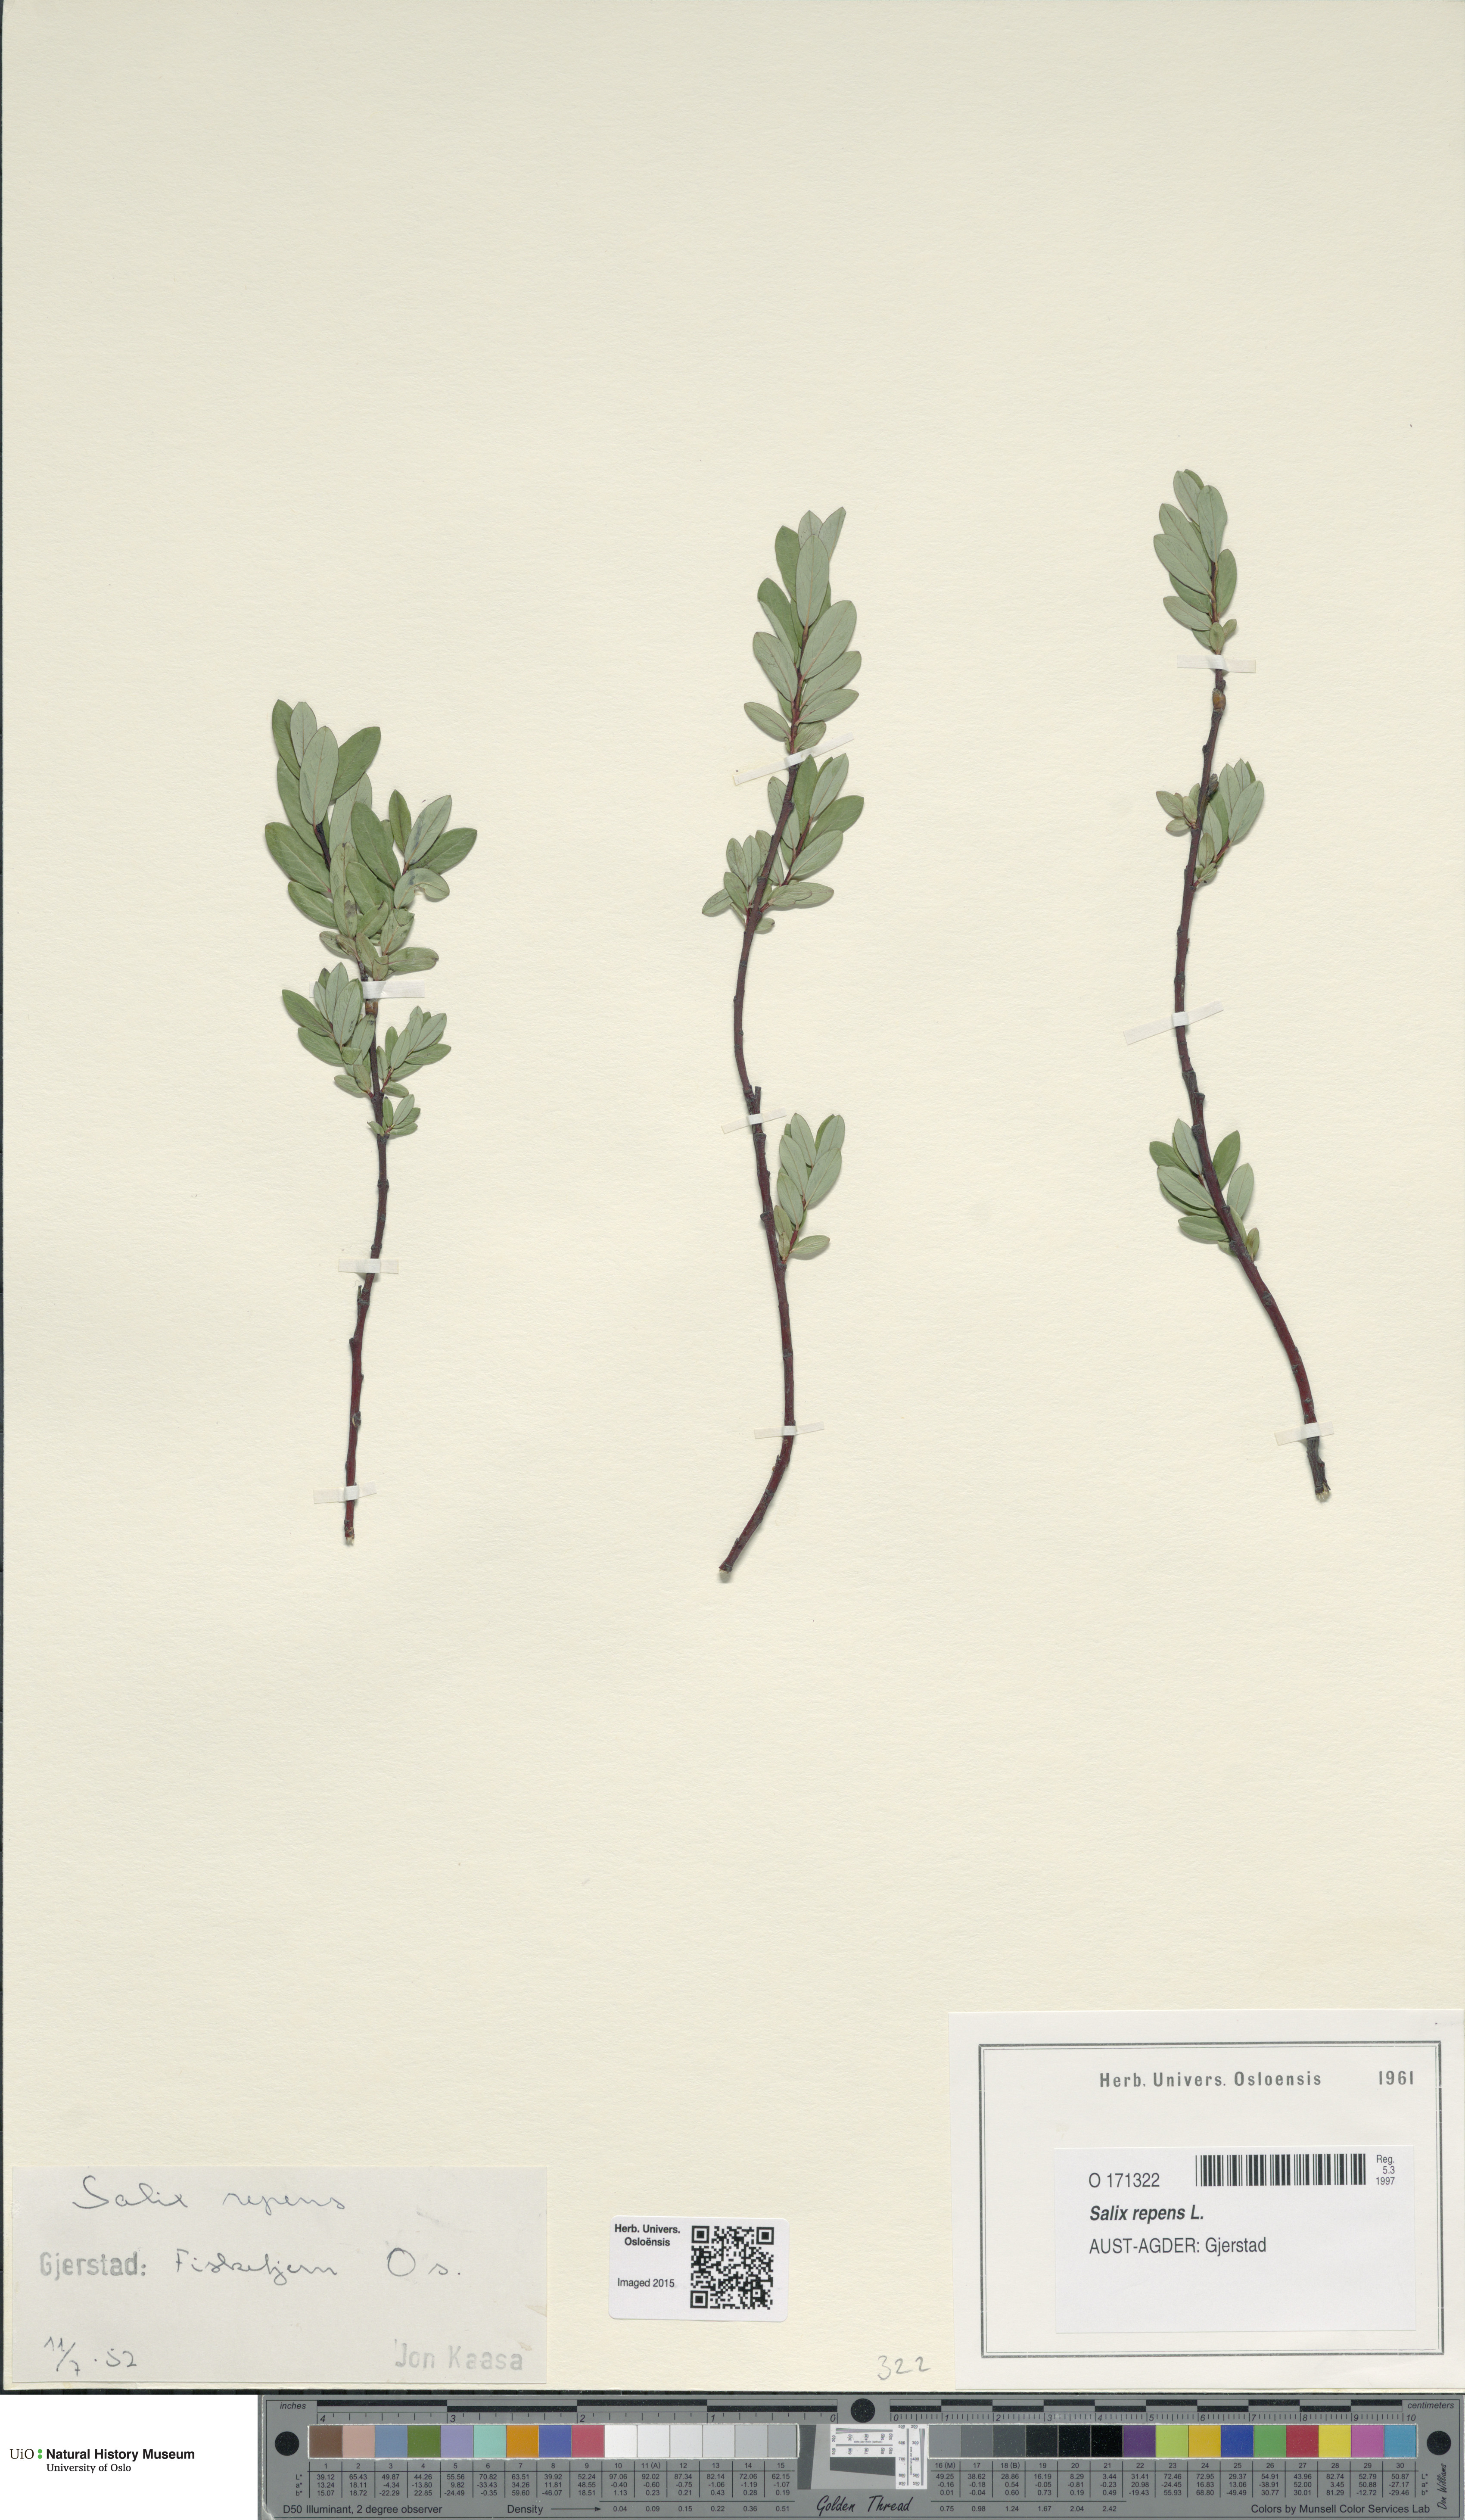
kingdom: Plantae
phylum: Tracheophyta
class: Magnoliopsida
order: Malpighiales
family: Salicaceae
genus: Salix
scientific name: Salix repens
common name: Creeping willow
